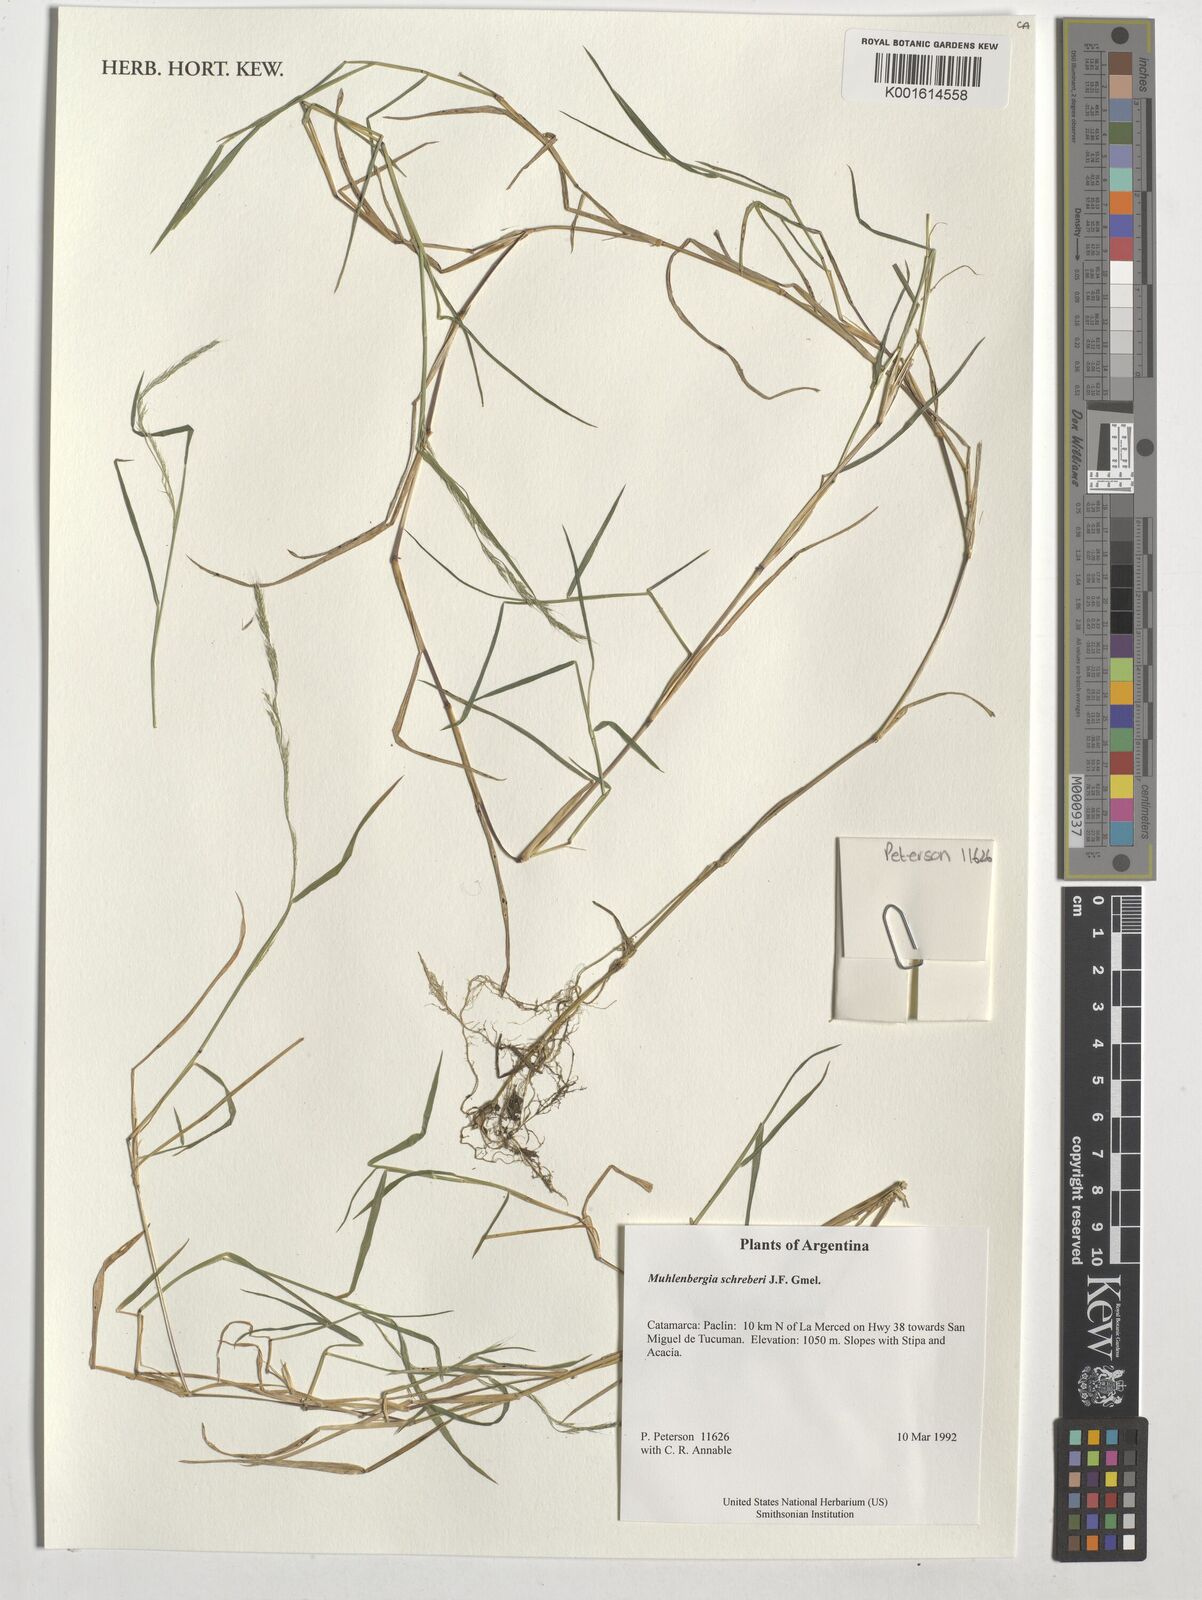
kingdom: Plantae
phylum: Tracheophyta
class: Liliopsida
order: Poales
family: Poaceae
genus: Muhlenbergia
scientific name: Muhlenbergia schreberi
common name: Nimblewill
